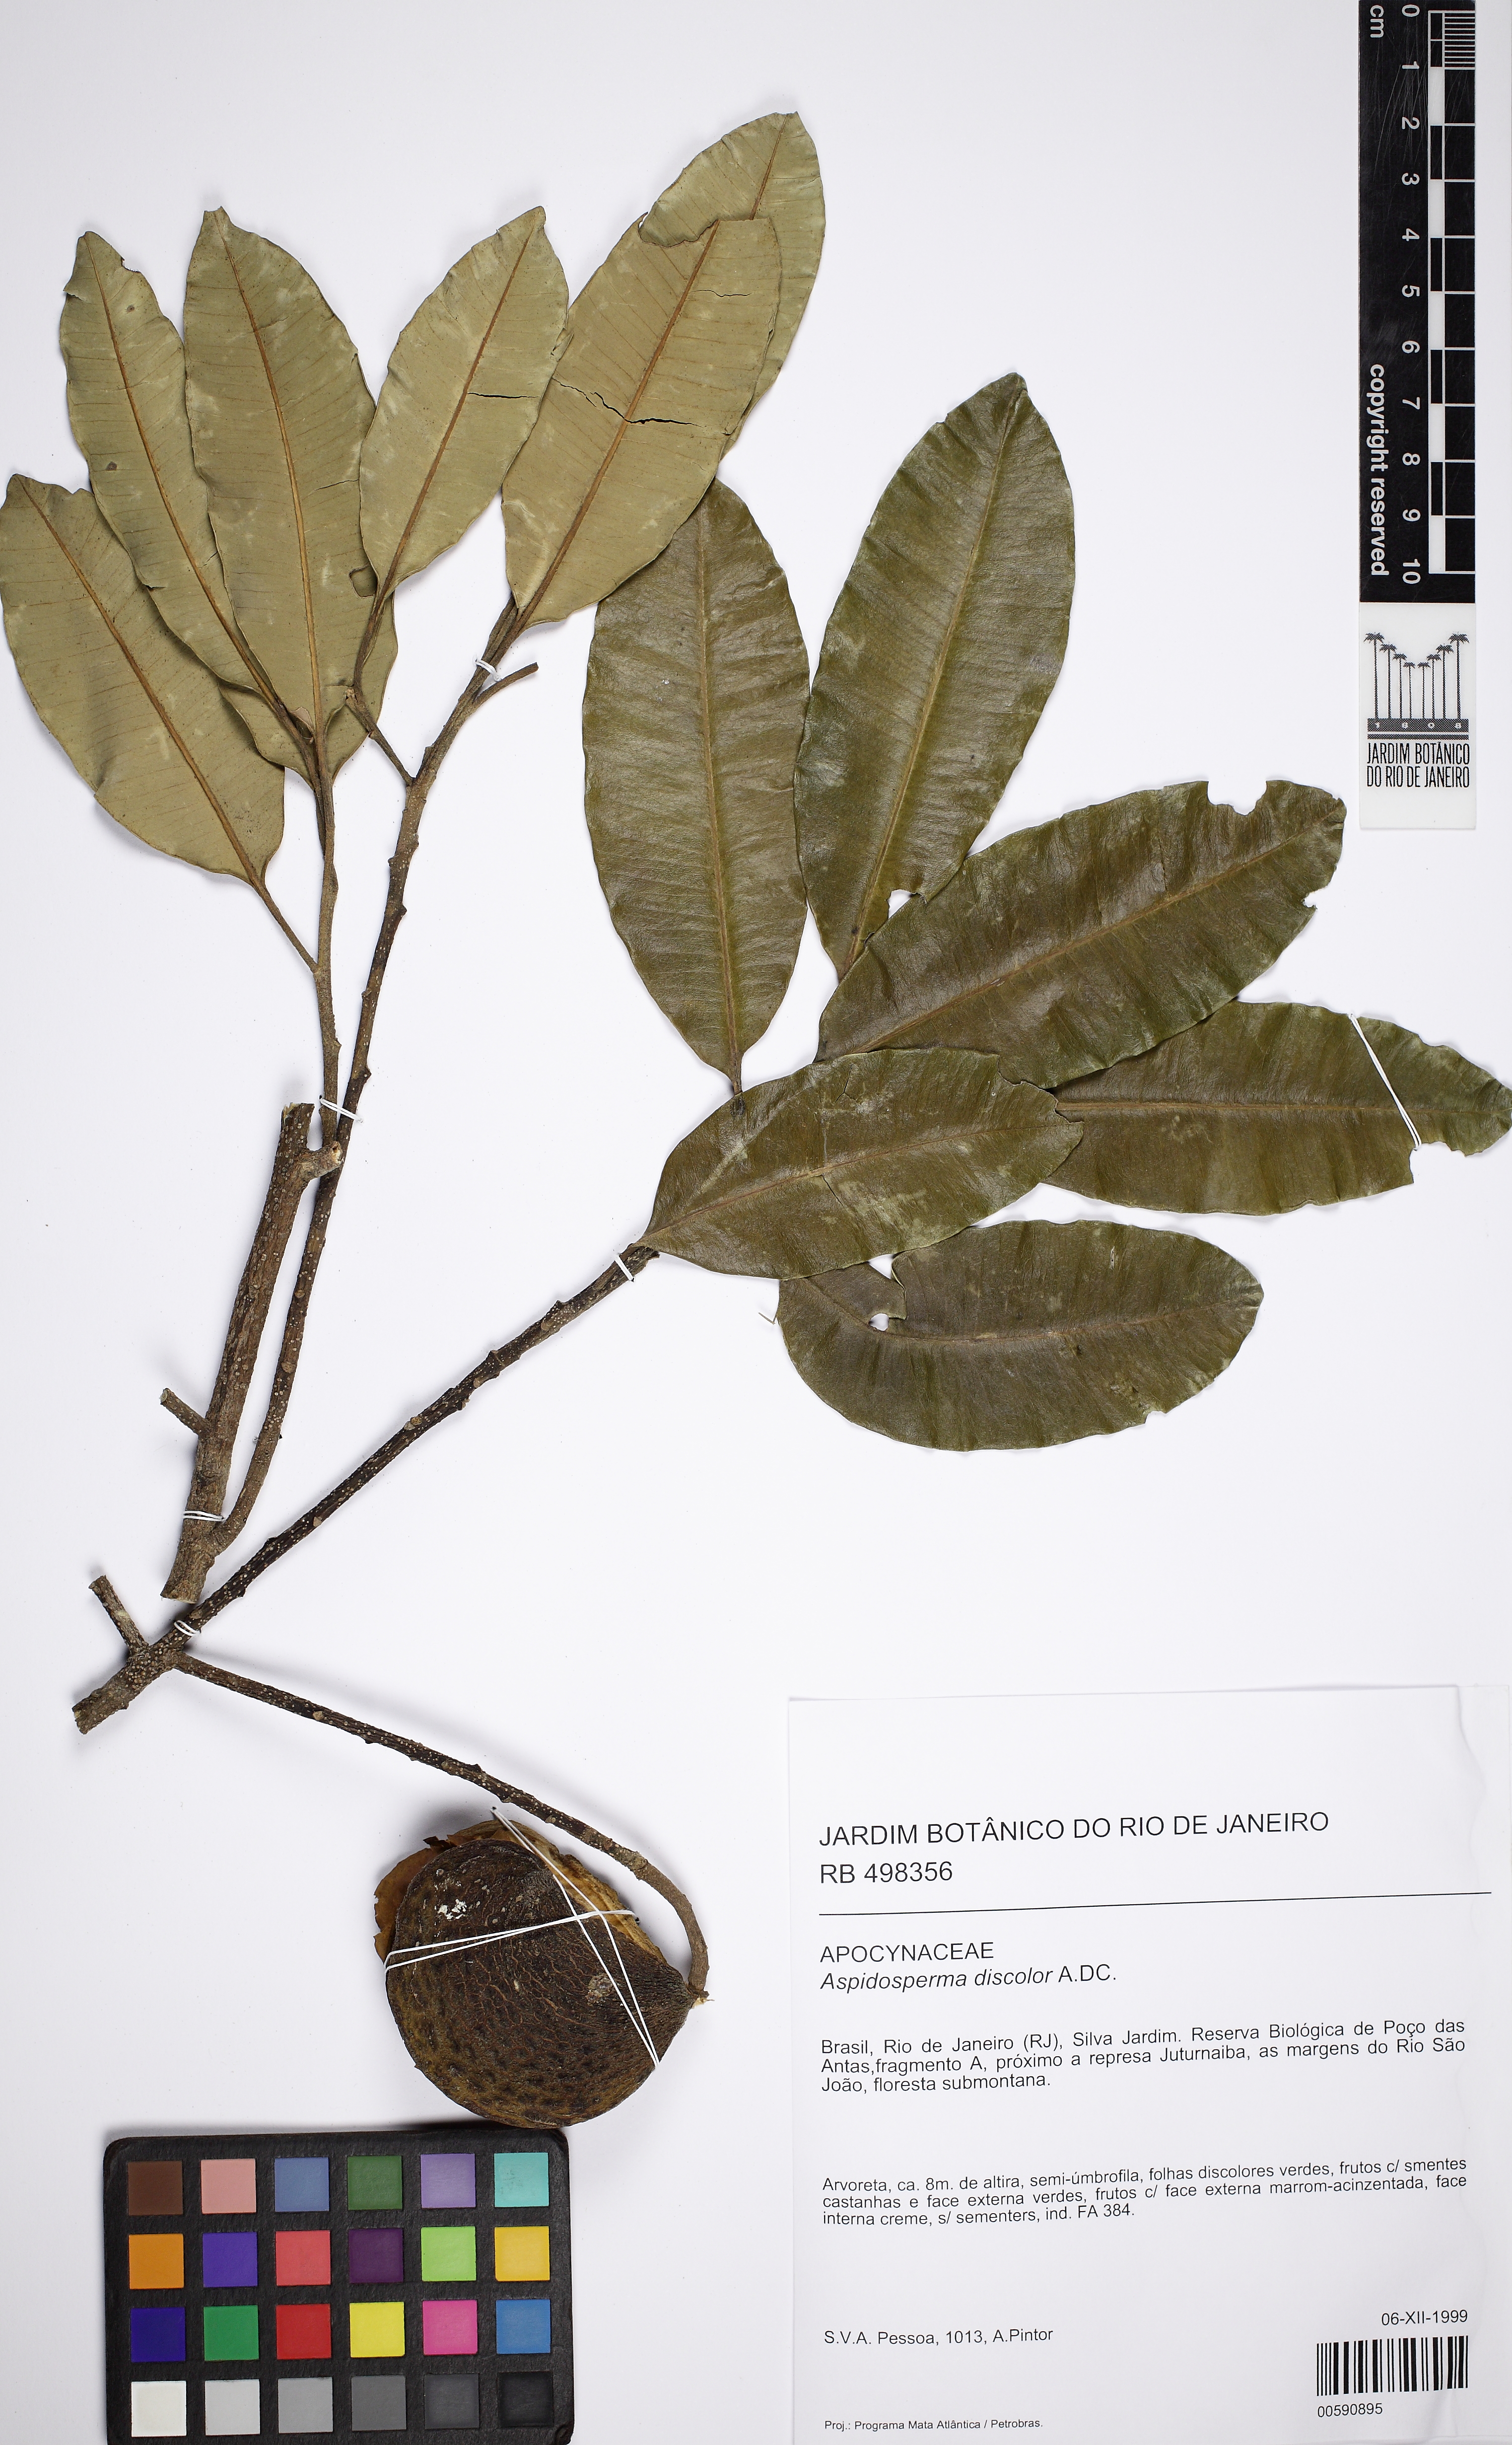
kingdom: Plantae
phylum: Tracheophyta
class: Magnoliopsida
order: Gentianales
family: Apocynaceae
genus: Aspidosperma
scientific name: Aspidosperma discolor
